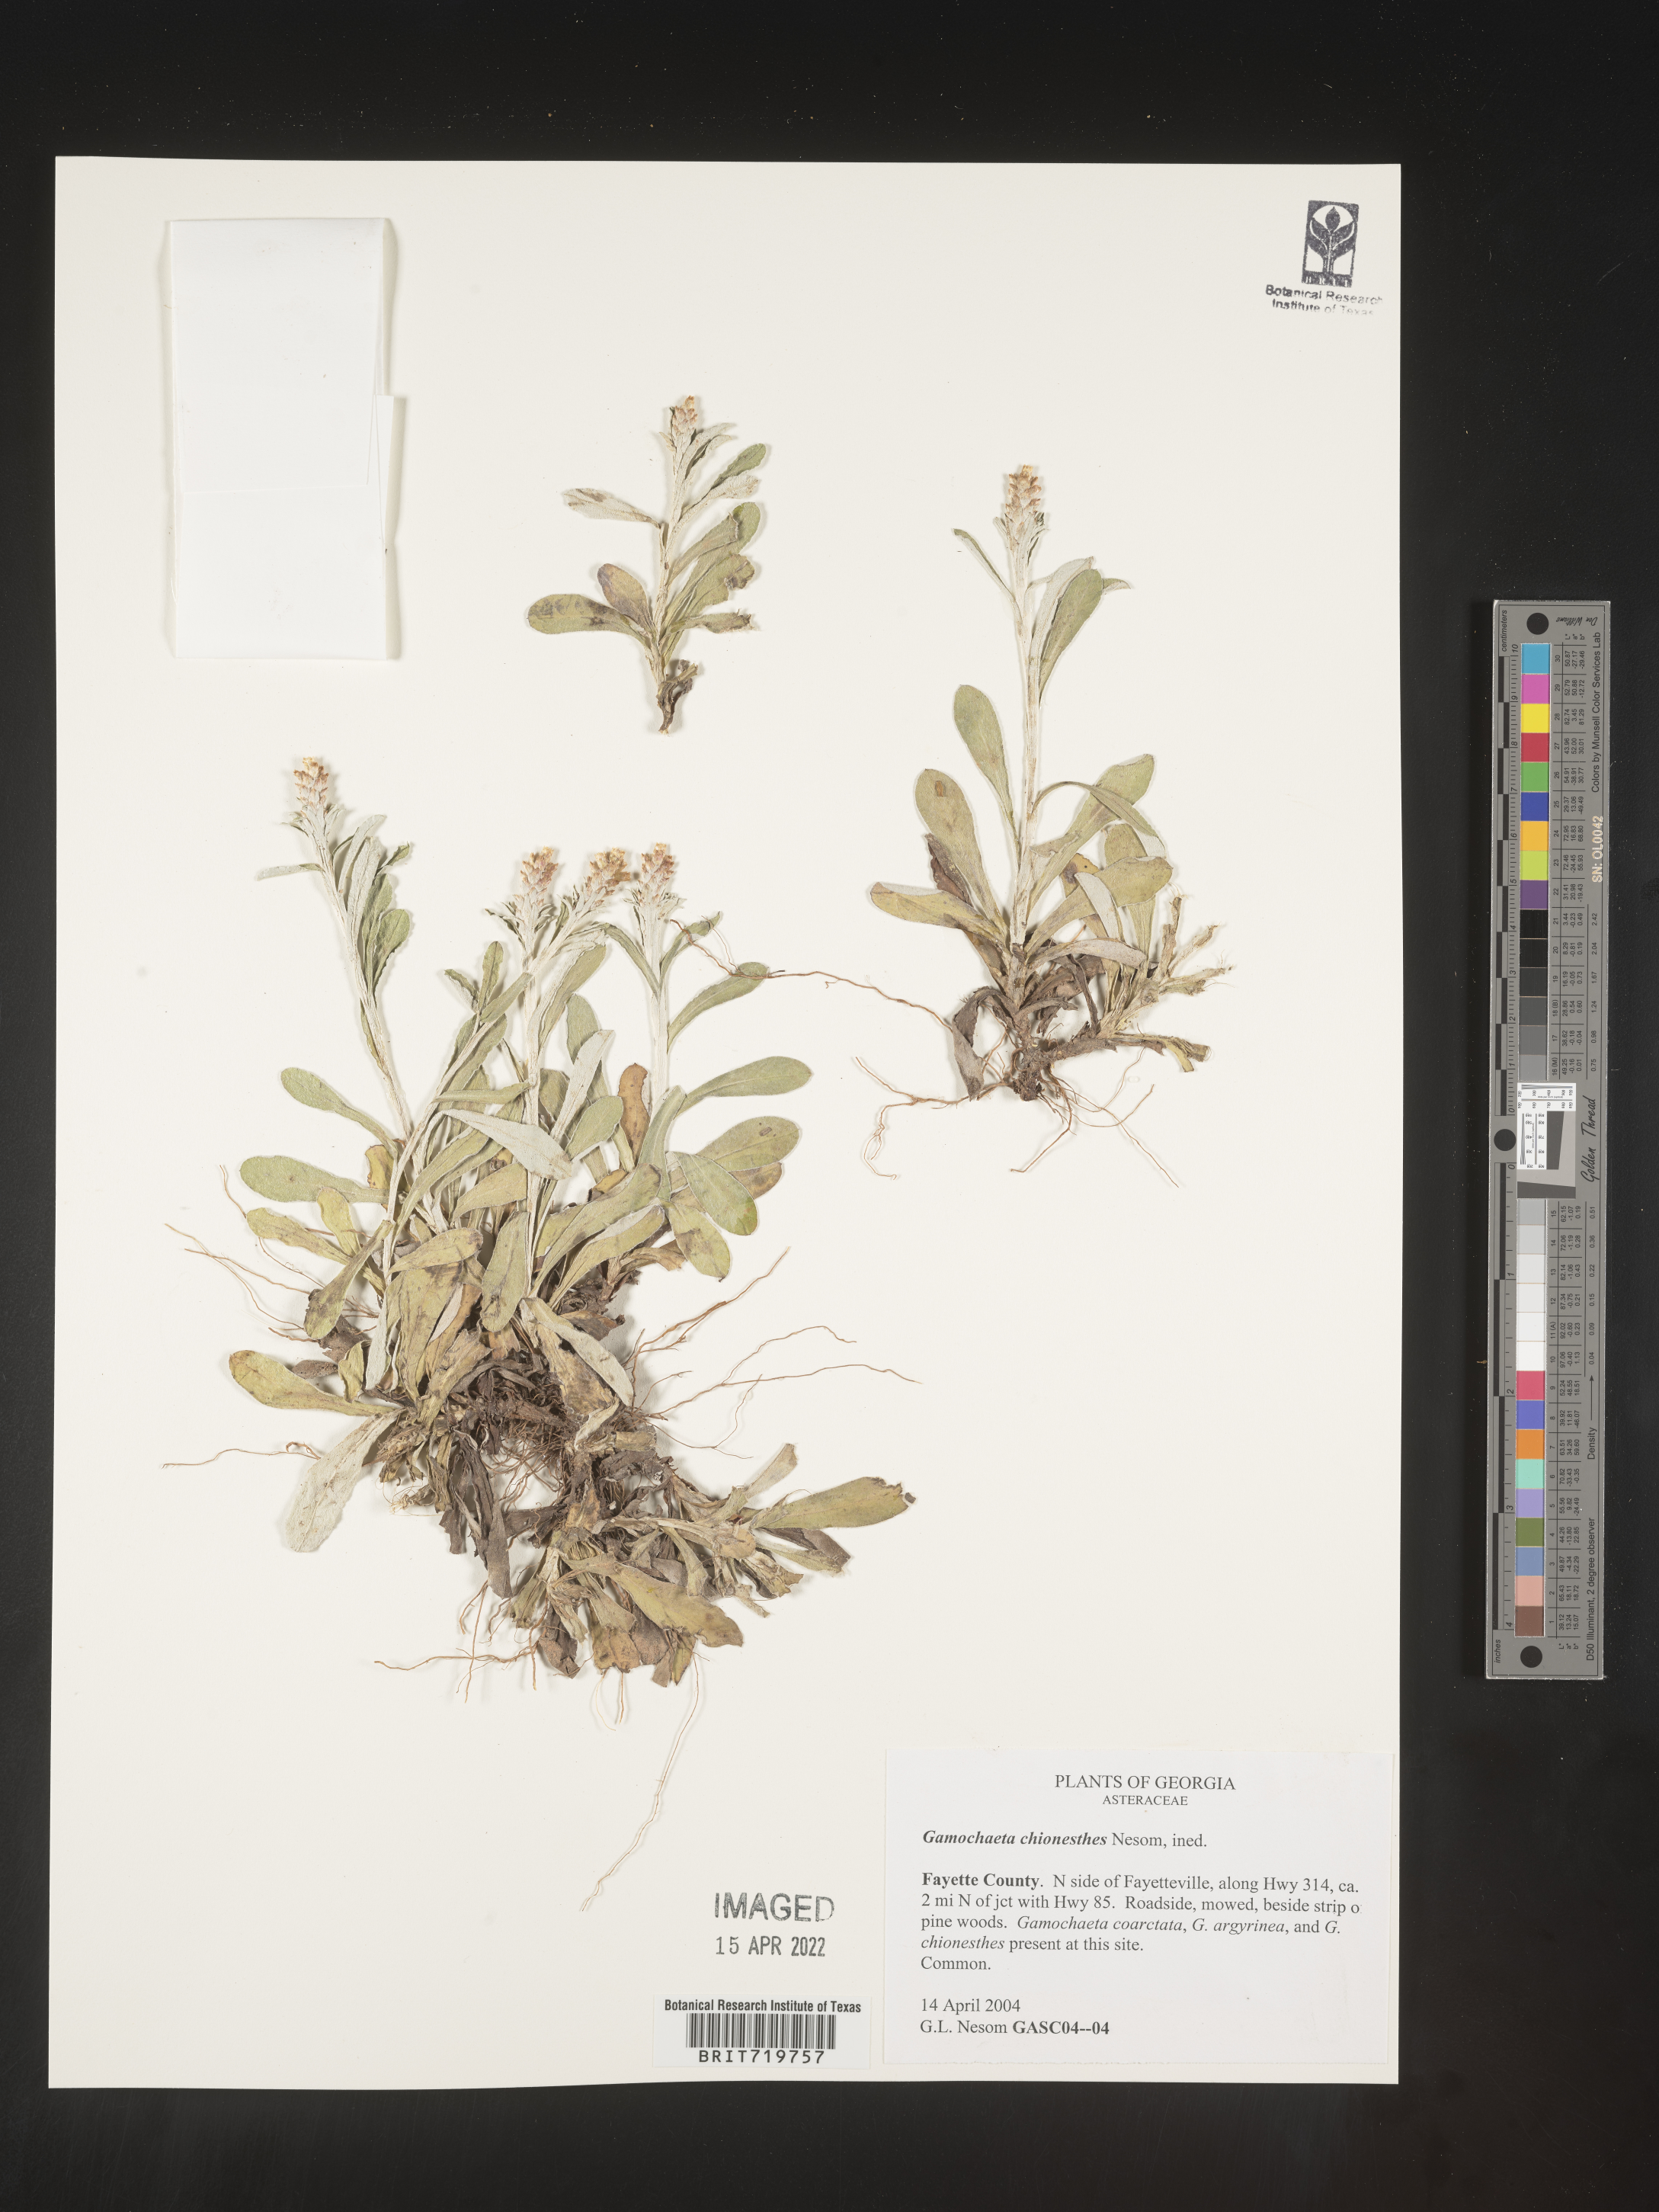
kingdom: Plantae
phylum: Tracheophyta
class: Magnoliopsida
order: Asterales
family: Asteraceae
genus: Gamochaeta
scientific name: Gamochaeta chionesthes
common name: Gray everlasting
